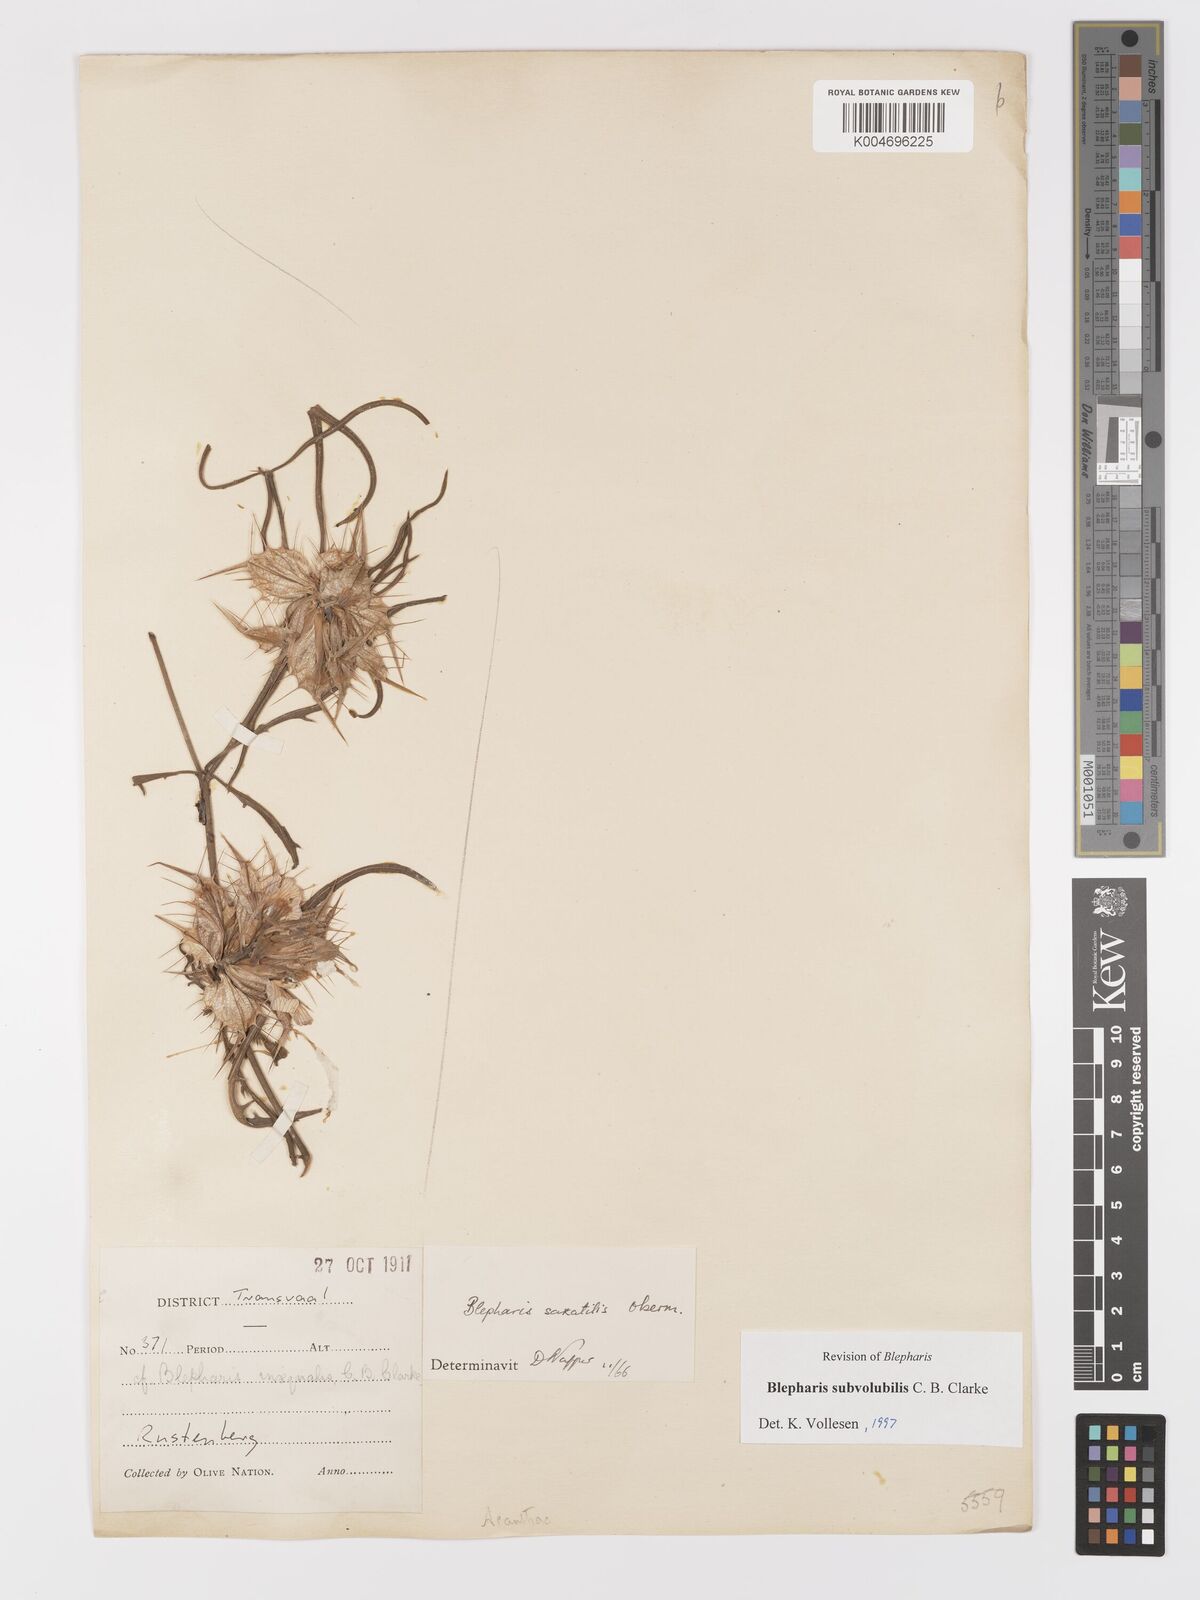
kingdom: Plantae
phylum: Tracheophyta
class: Magnoliopsida
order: Lamiales
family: Acanthaceae
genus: Blepharis
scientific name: Blepharis subvolubilis
